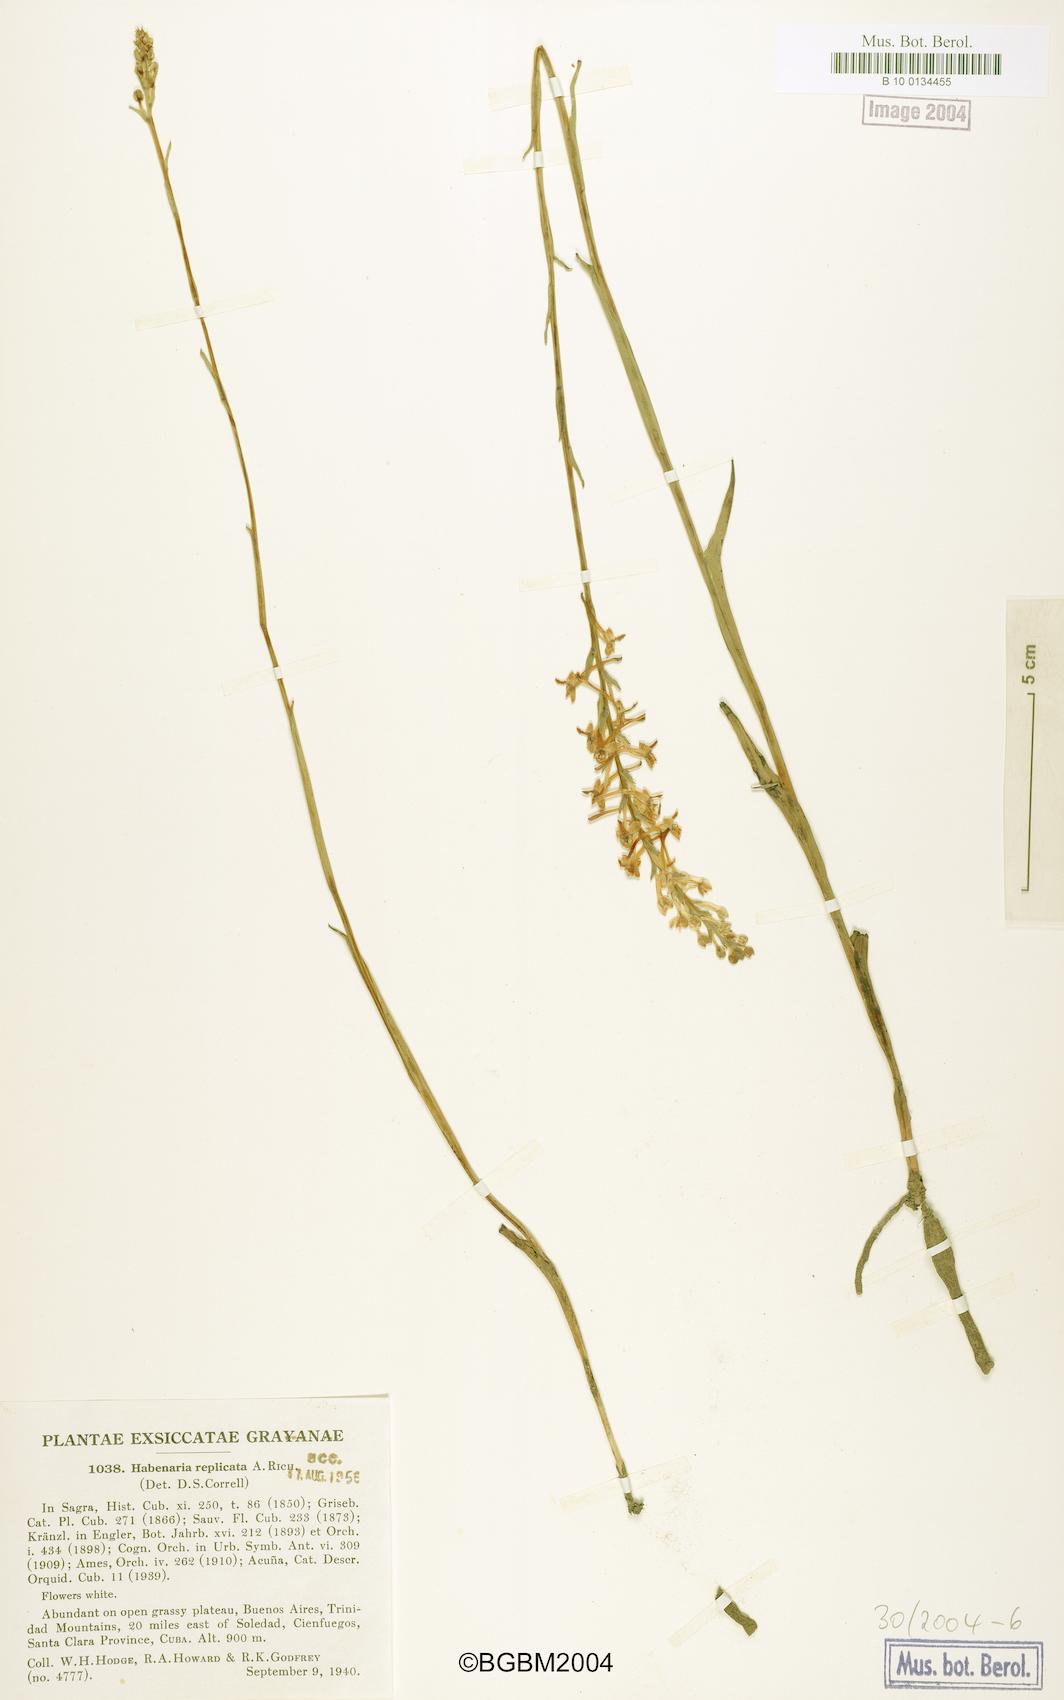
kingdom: Plantae
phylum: Tracheophyta
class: Liliopsida
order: Asparagales
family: Orchidaceae
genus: Platanthera
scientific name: Platanthera replicata
